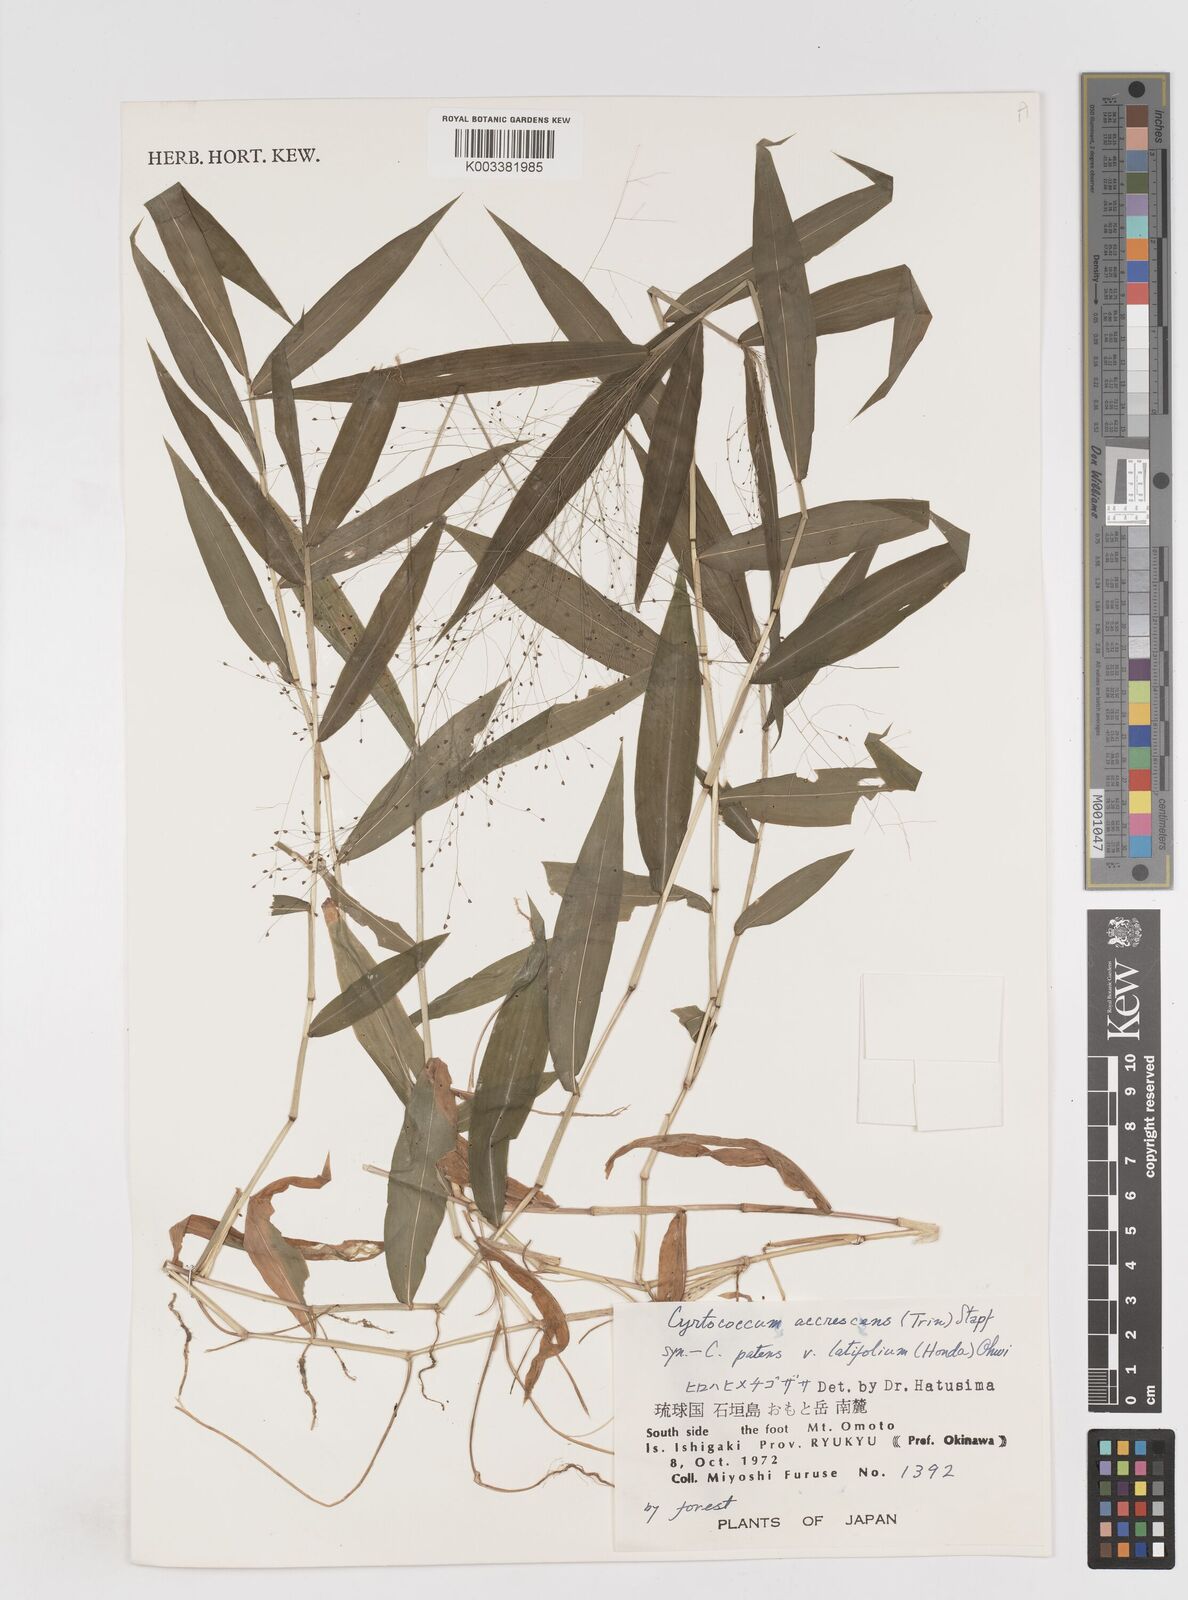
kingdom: Plantae
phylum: Tracheophyta
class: Liliopsida
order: Poales
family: Poaceae
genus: Cyrtococcum
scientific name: Cyrtococcum patens
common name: Broad-leaved bowgrass
